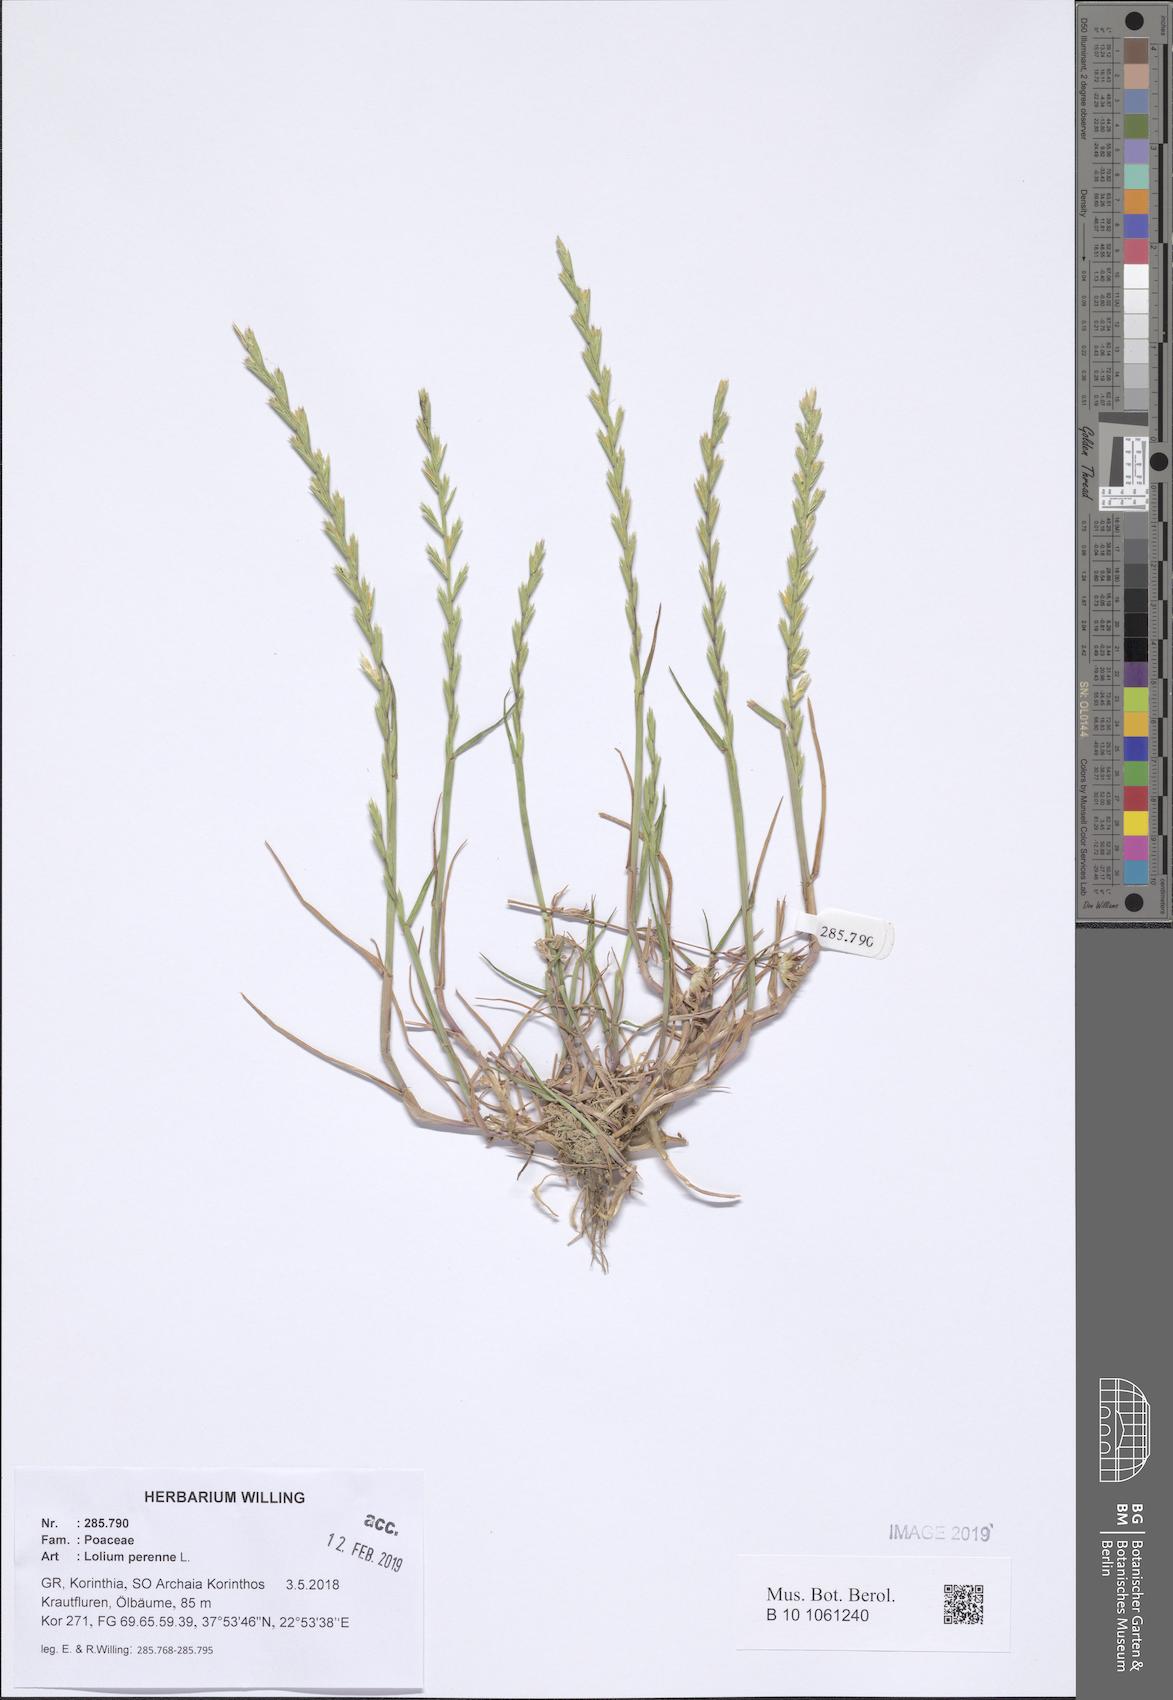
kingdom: Plantae
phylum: Tracheophyta
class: Liliopsida
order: Poales
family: Poaceae
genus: Lolium
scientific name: Lolium perenne
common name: Perennial ryegrass
